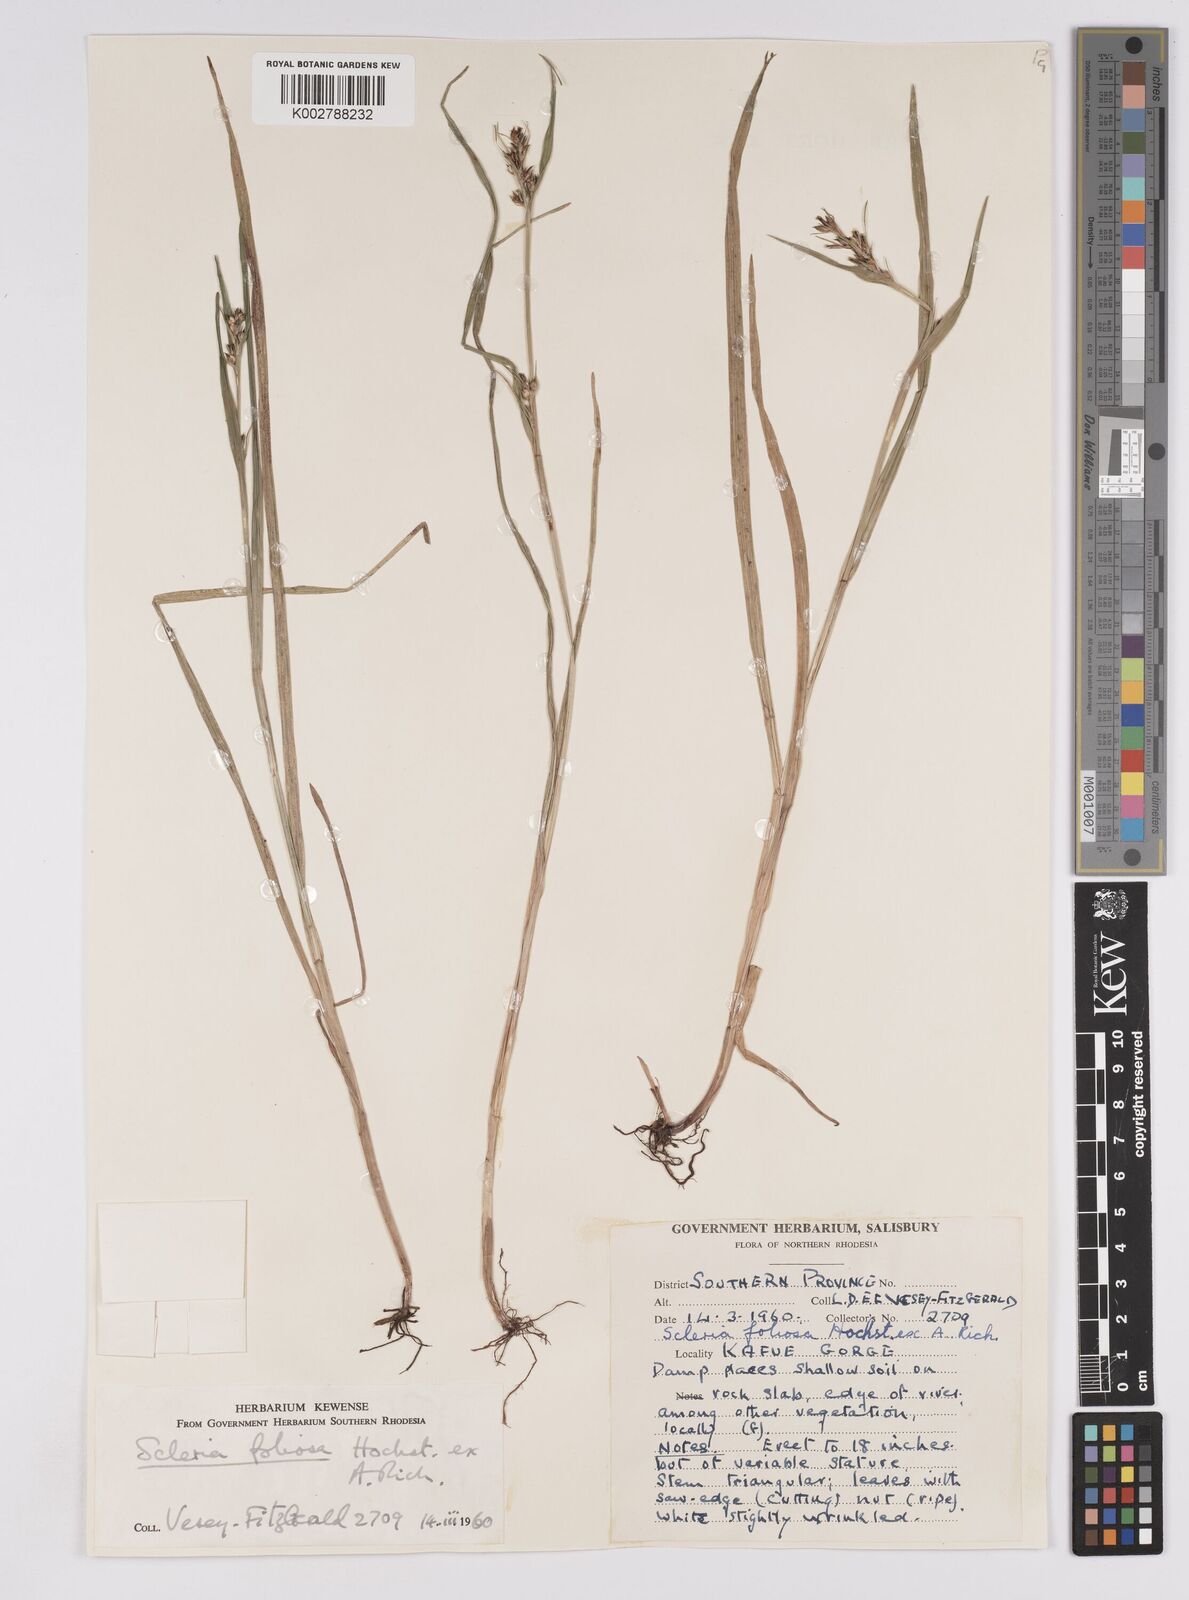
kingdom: Plantae
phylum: Tracheophyta
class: Liliopsida
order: Poales
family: Cyperaceae
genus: Scleria
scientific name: Scleria foliosa
